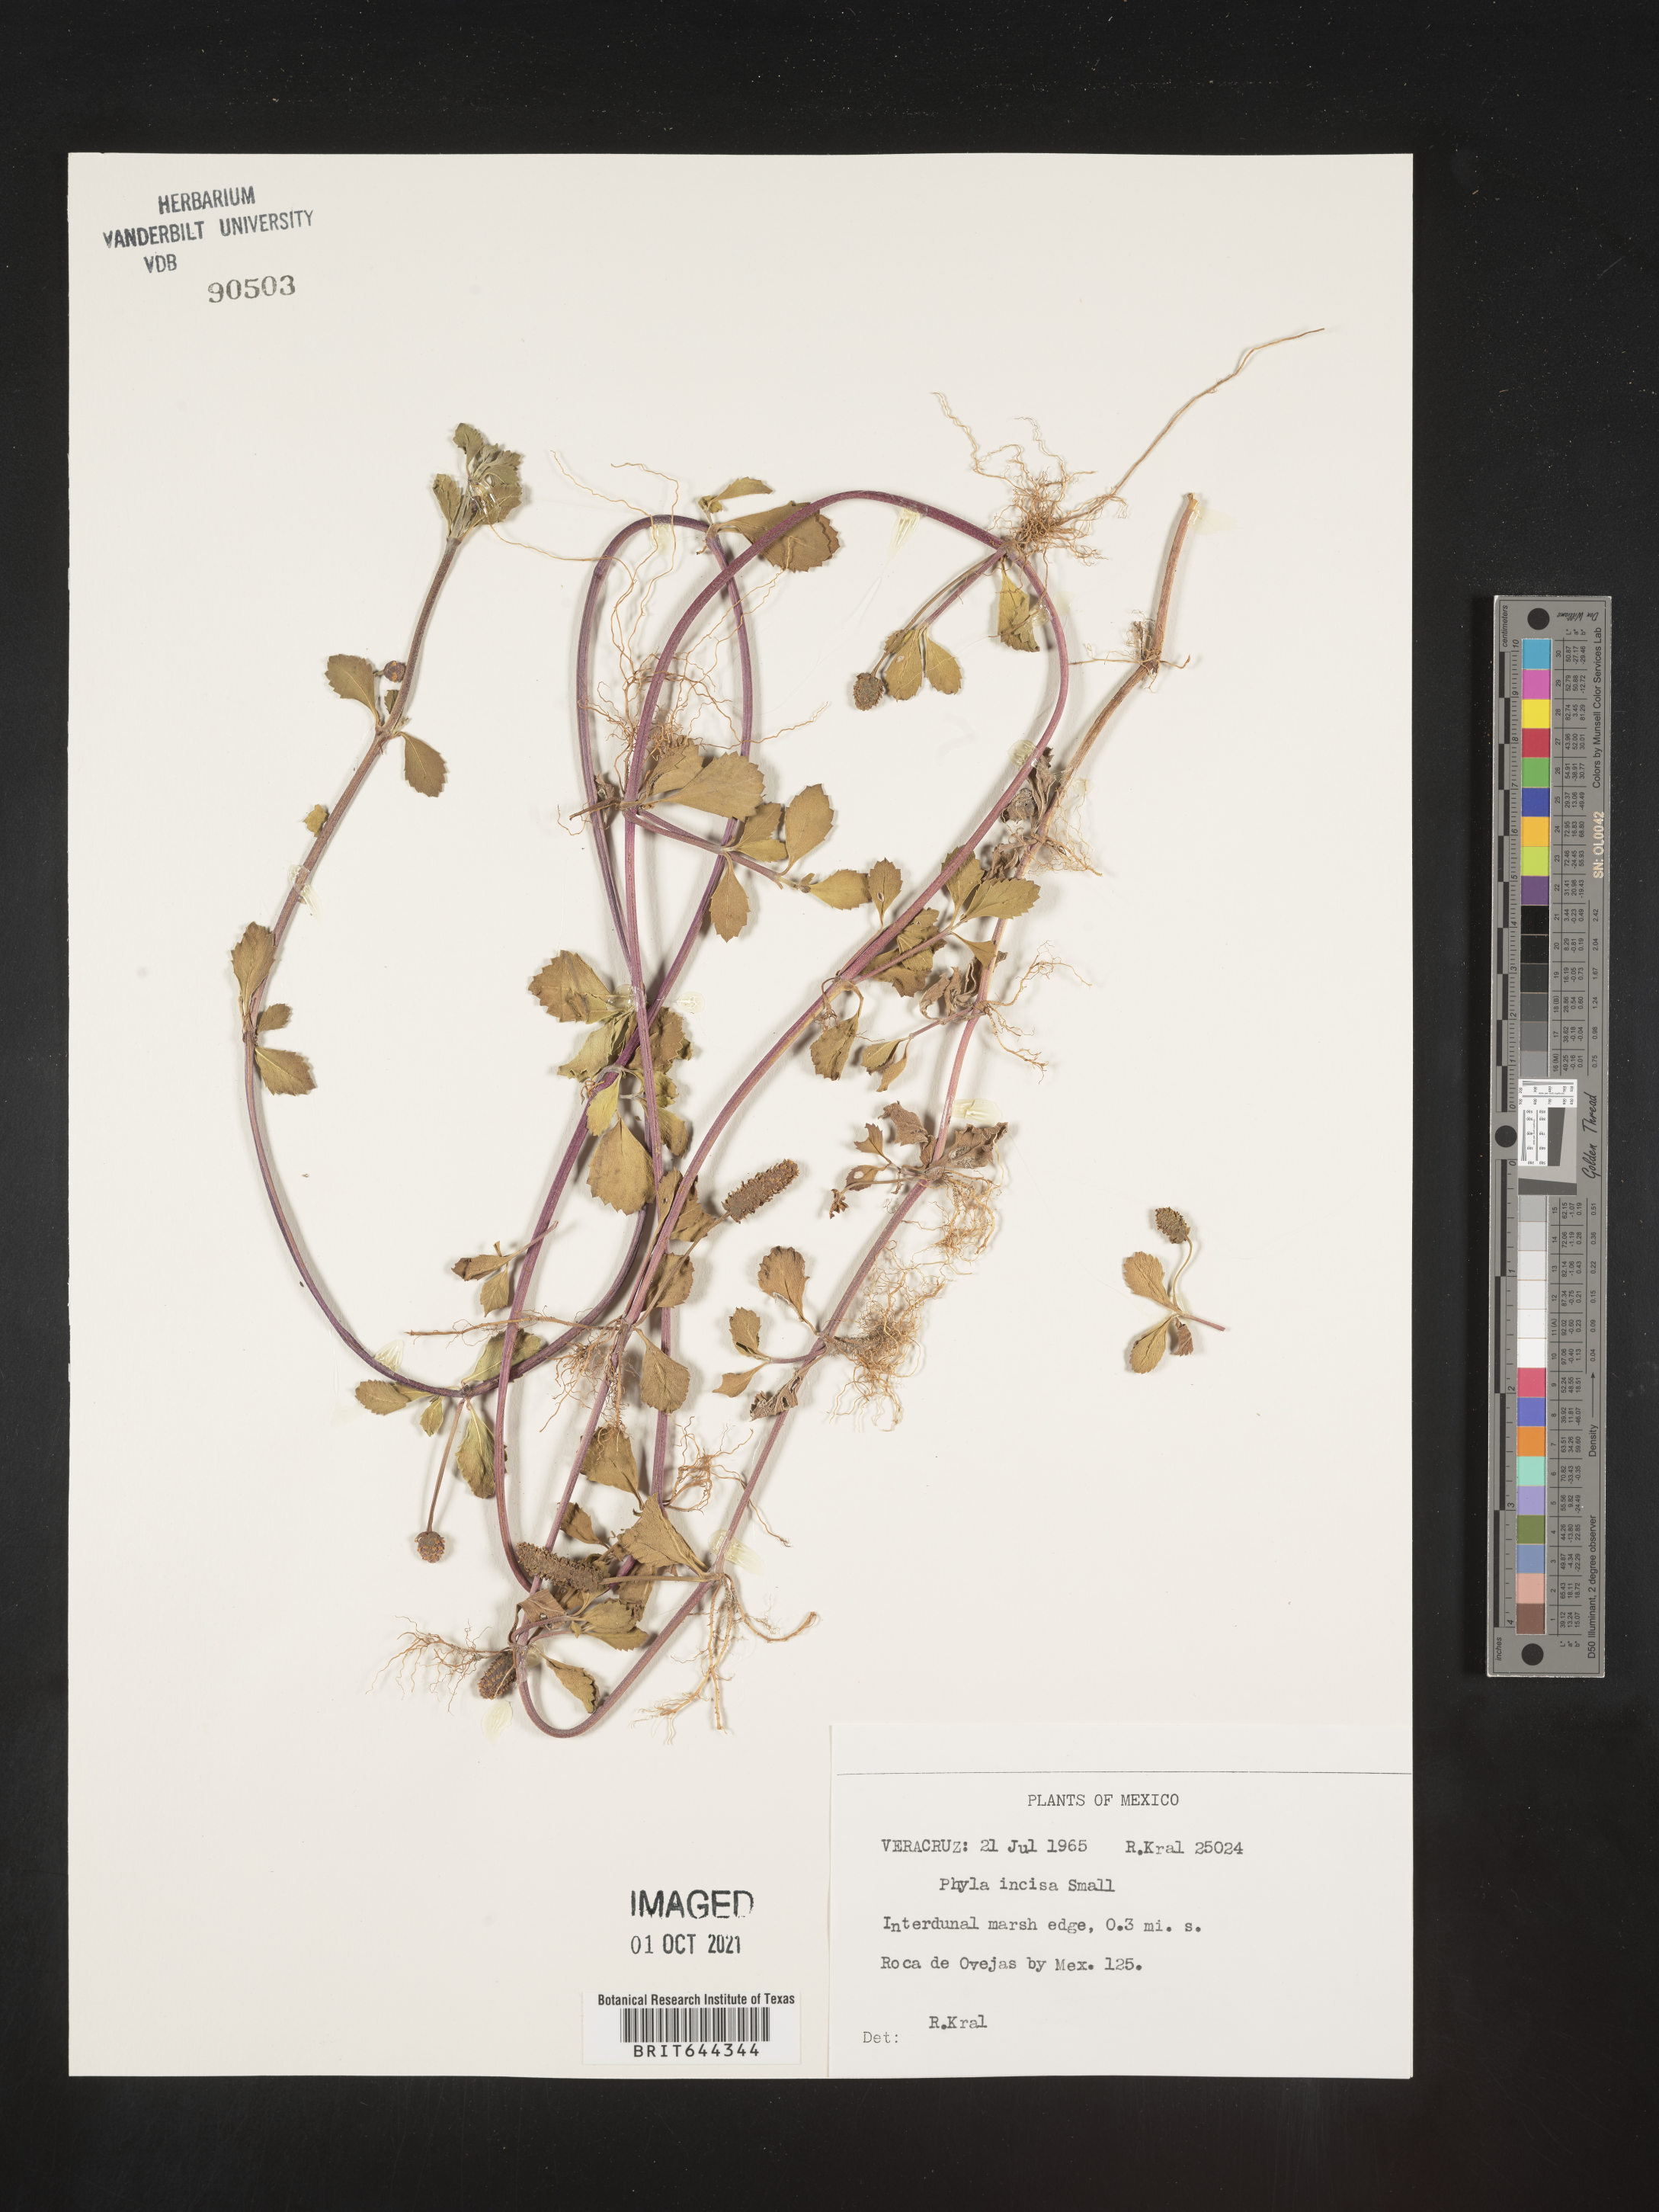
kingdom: Plantae
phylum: Tracheophyta
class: Magnoliopsida
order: Lamiales
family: Verbenaceae
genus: Phyla
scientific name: Phyla
